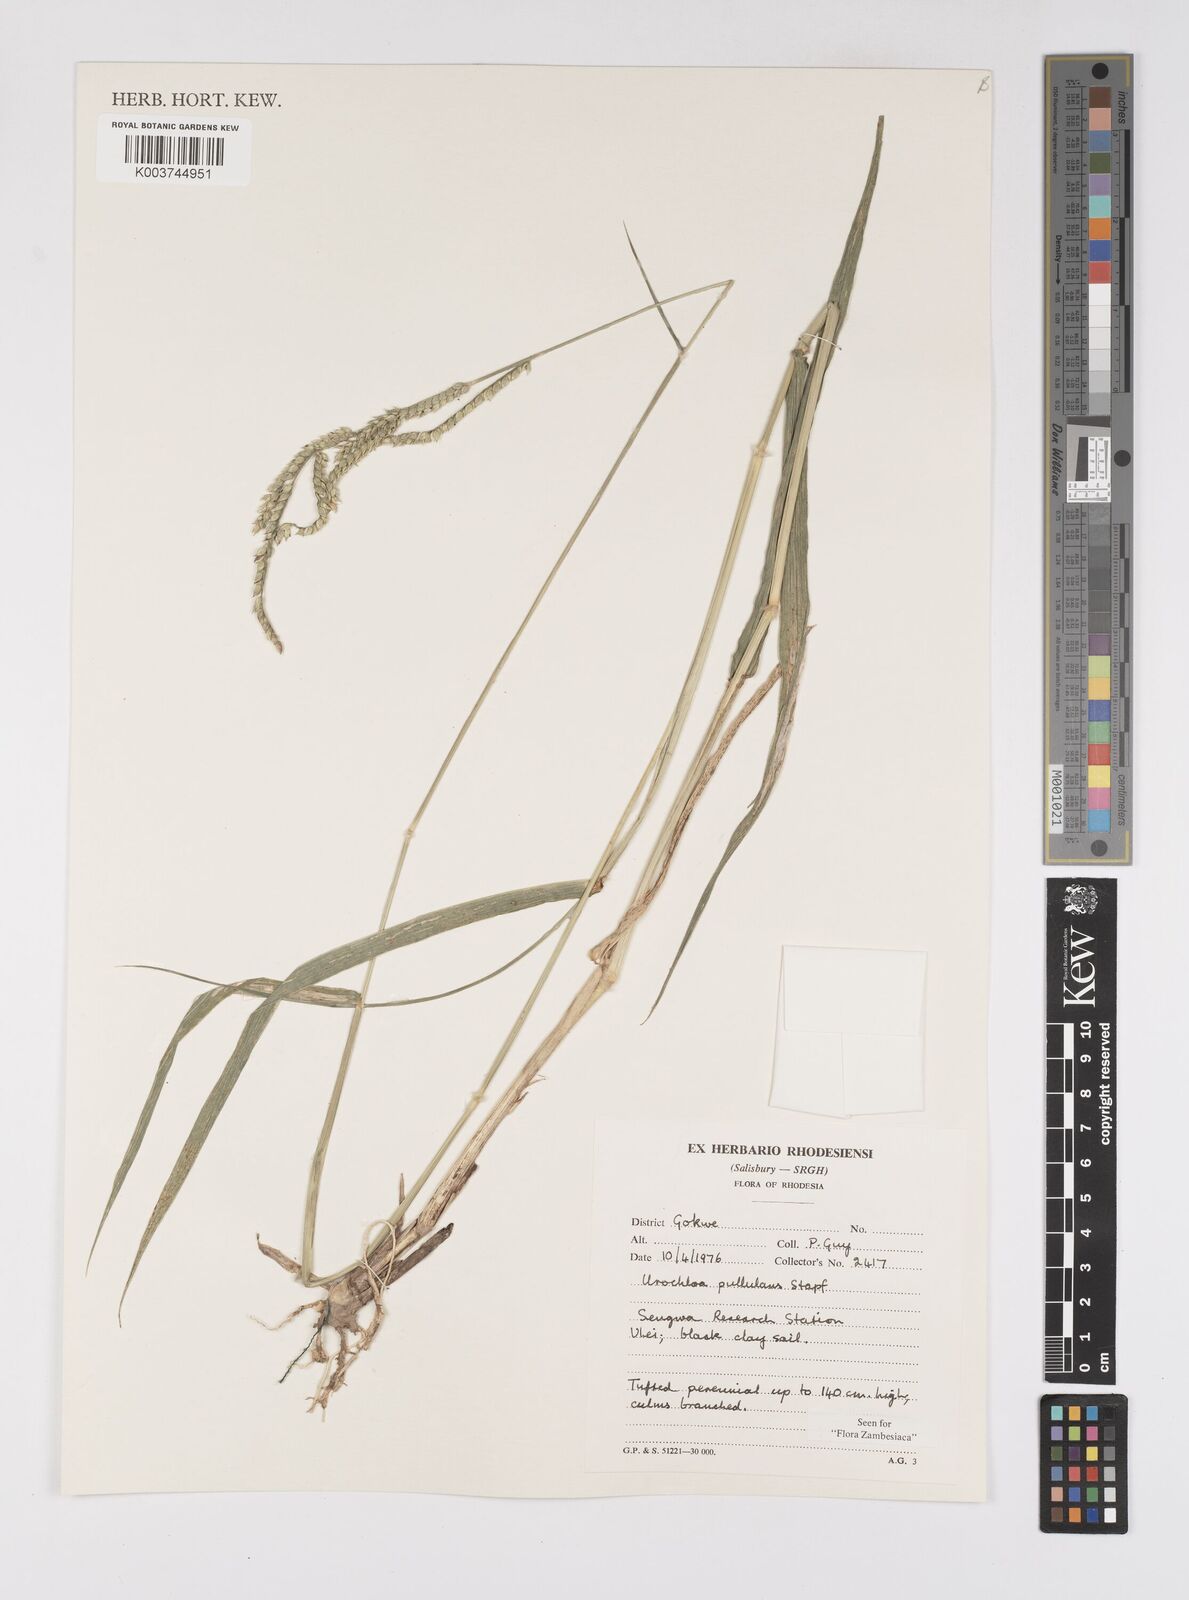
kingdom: Plantae
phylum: Tracheophyta
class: Liliopsida
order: Poales
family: Poaceae
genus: Urochloa
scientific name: Urochloa trichopus
